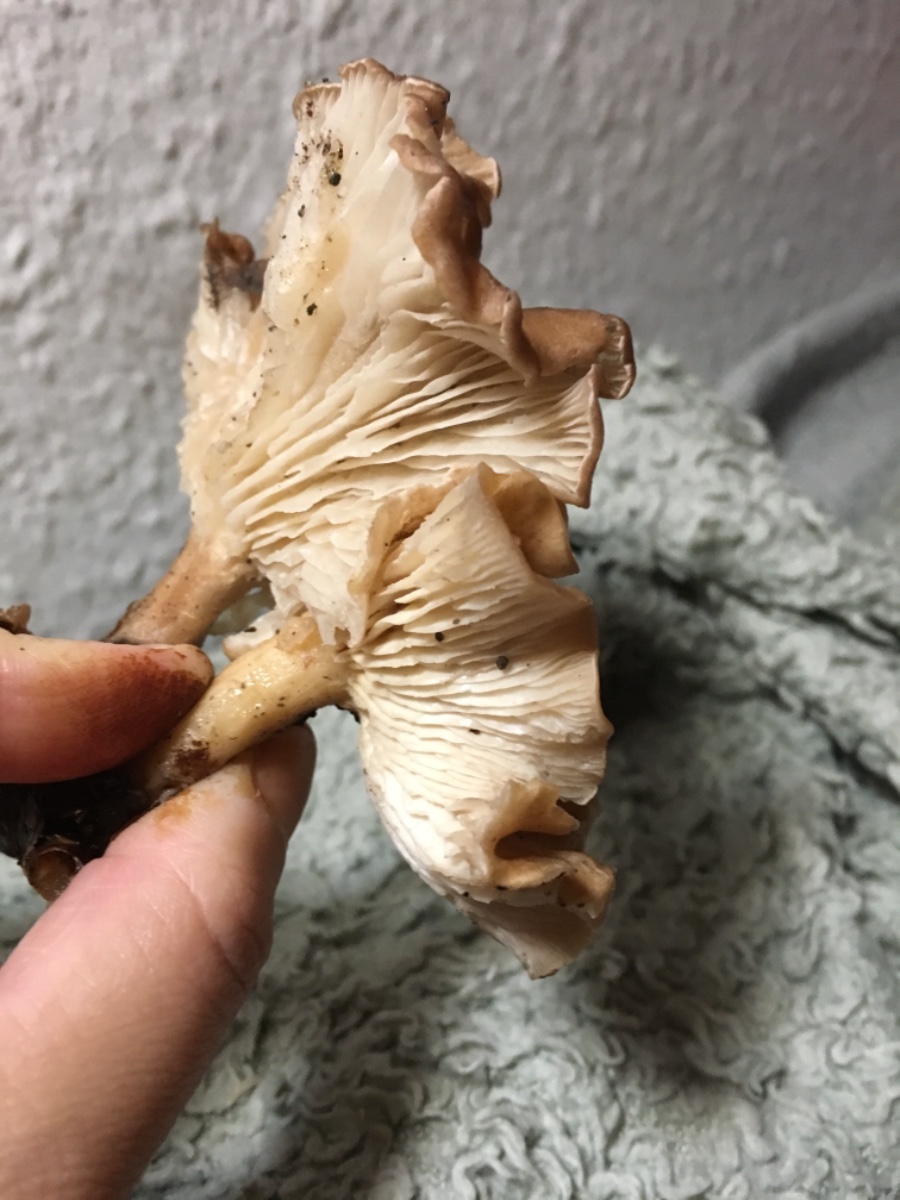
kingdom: Fungi
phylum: Basidiomycota
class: Agaricomycetes
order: Agaricales
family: Tricholomataceae
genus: Infundibulicybe
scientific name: Infundibulicybe gibba
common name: almindelig tragthat
